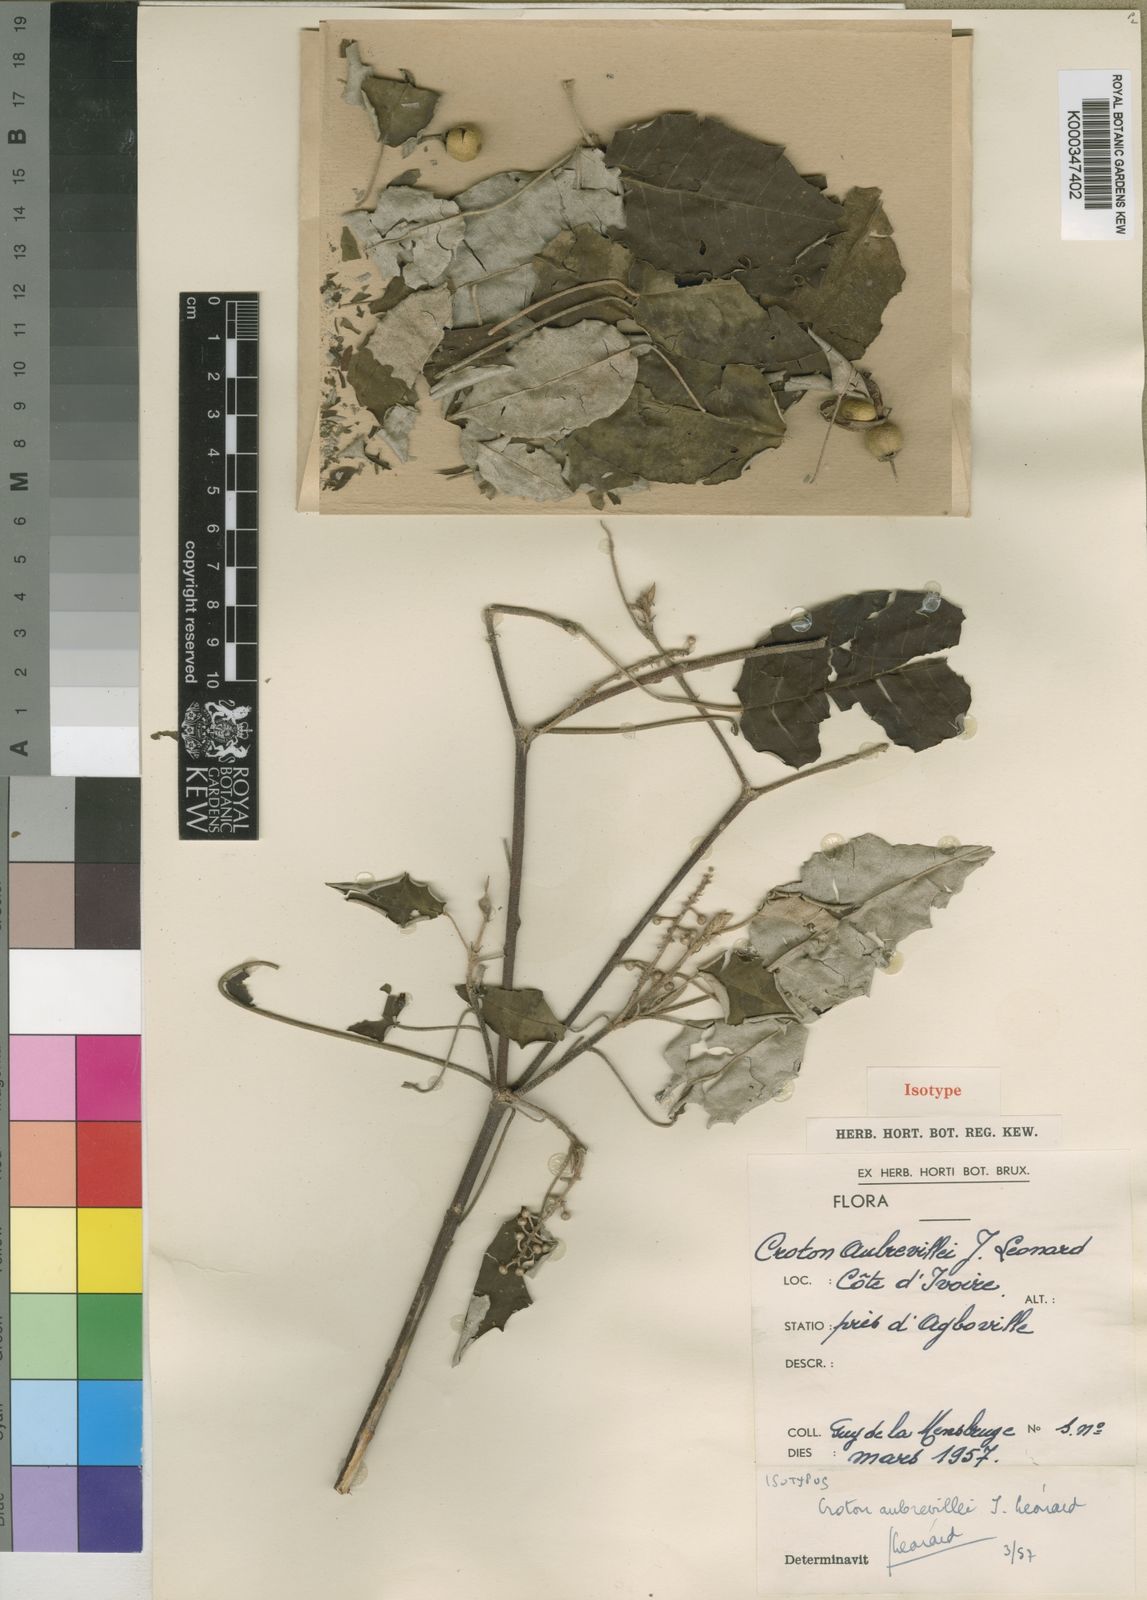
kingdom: Plantae
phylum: Tracheophyta
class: Magnoliopsida
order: Malpighiales
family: Euphorbiaceae
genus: Croton
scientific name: Croton
